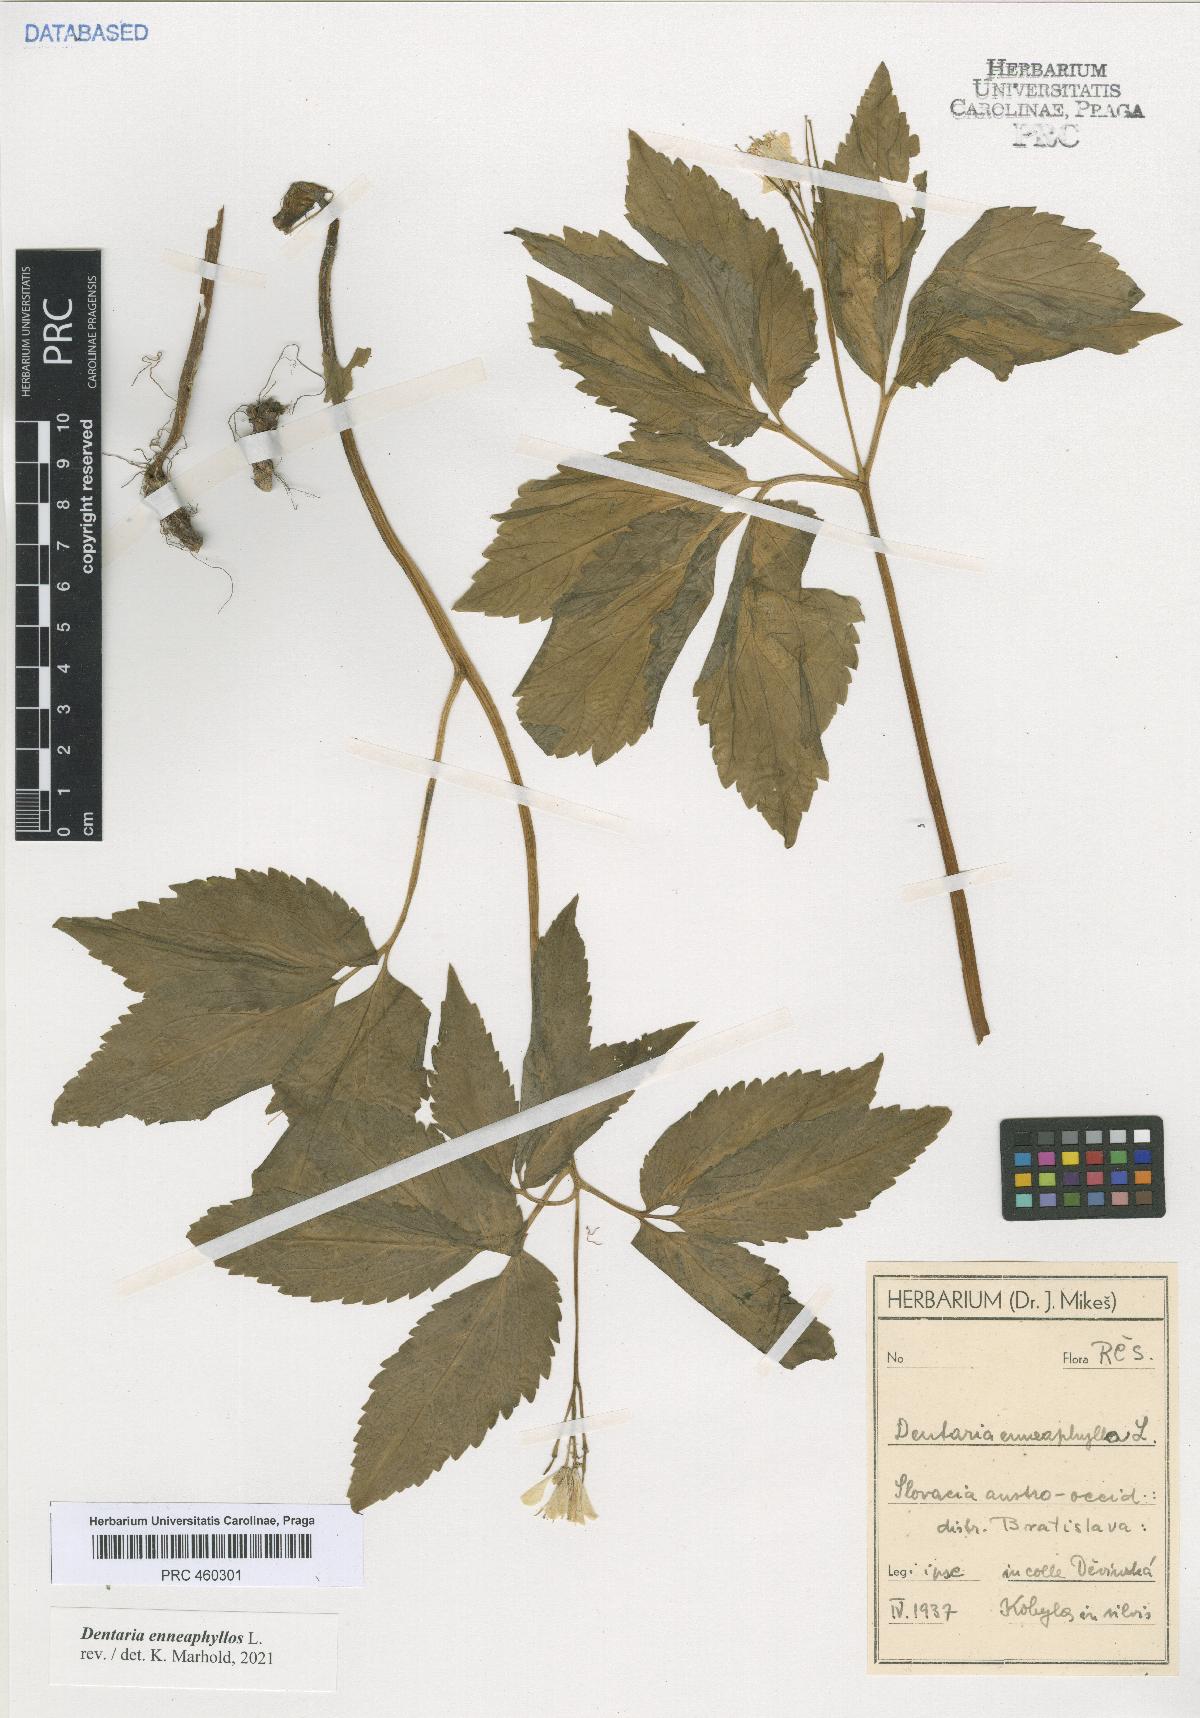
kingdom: Plantae
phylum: Tracheophyta
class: Magnoliopsida
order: Brassicales
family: Brassicaceae
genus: Cardamine
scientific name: Cardamine enneaphyllos
